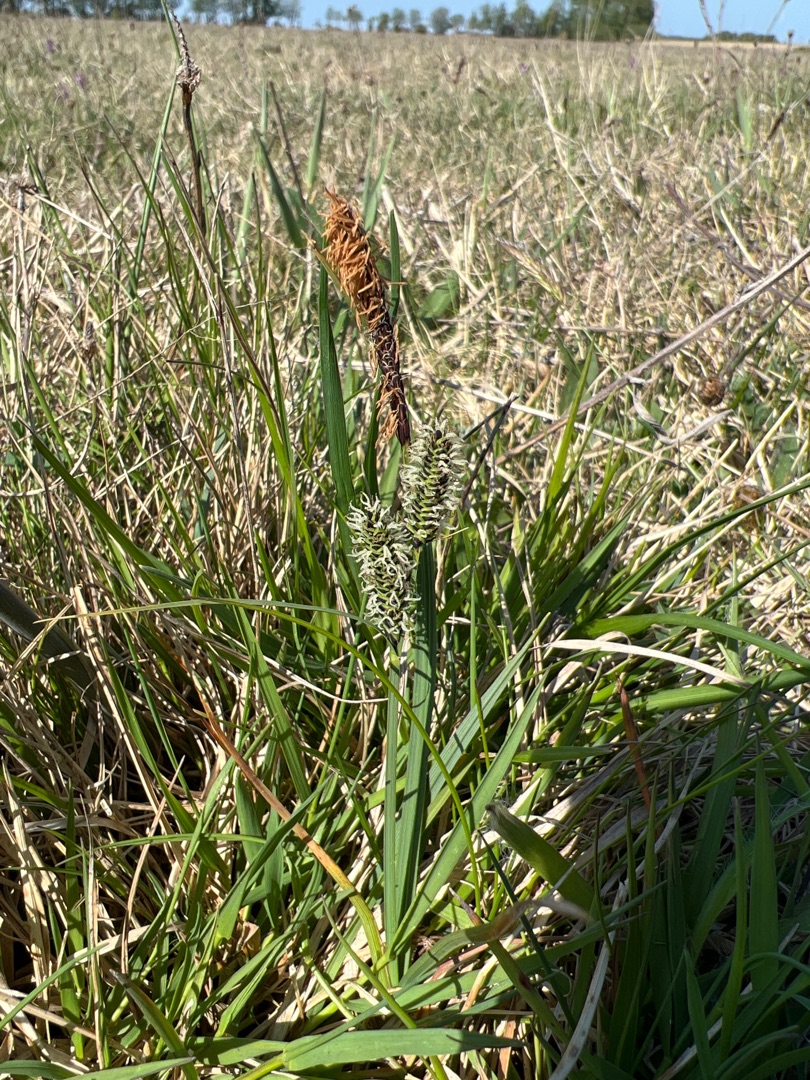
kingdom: Plantae
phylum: Tracheophyta
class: Liliopsida
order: Poales
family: Cyperaceae
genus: Carex
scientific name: Carex nigra
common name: Almindelig star
